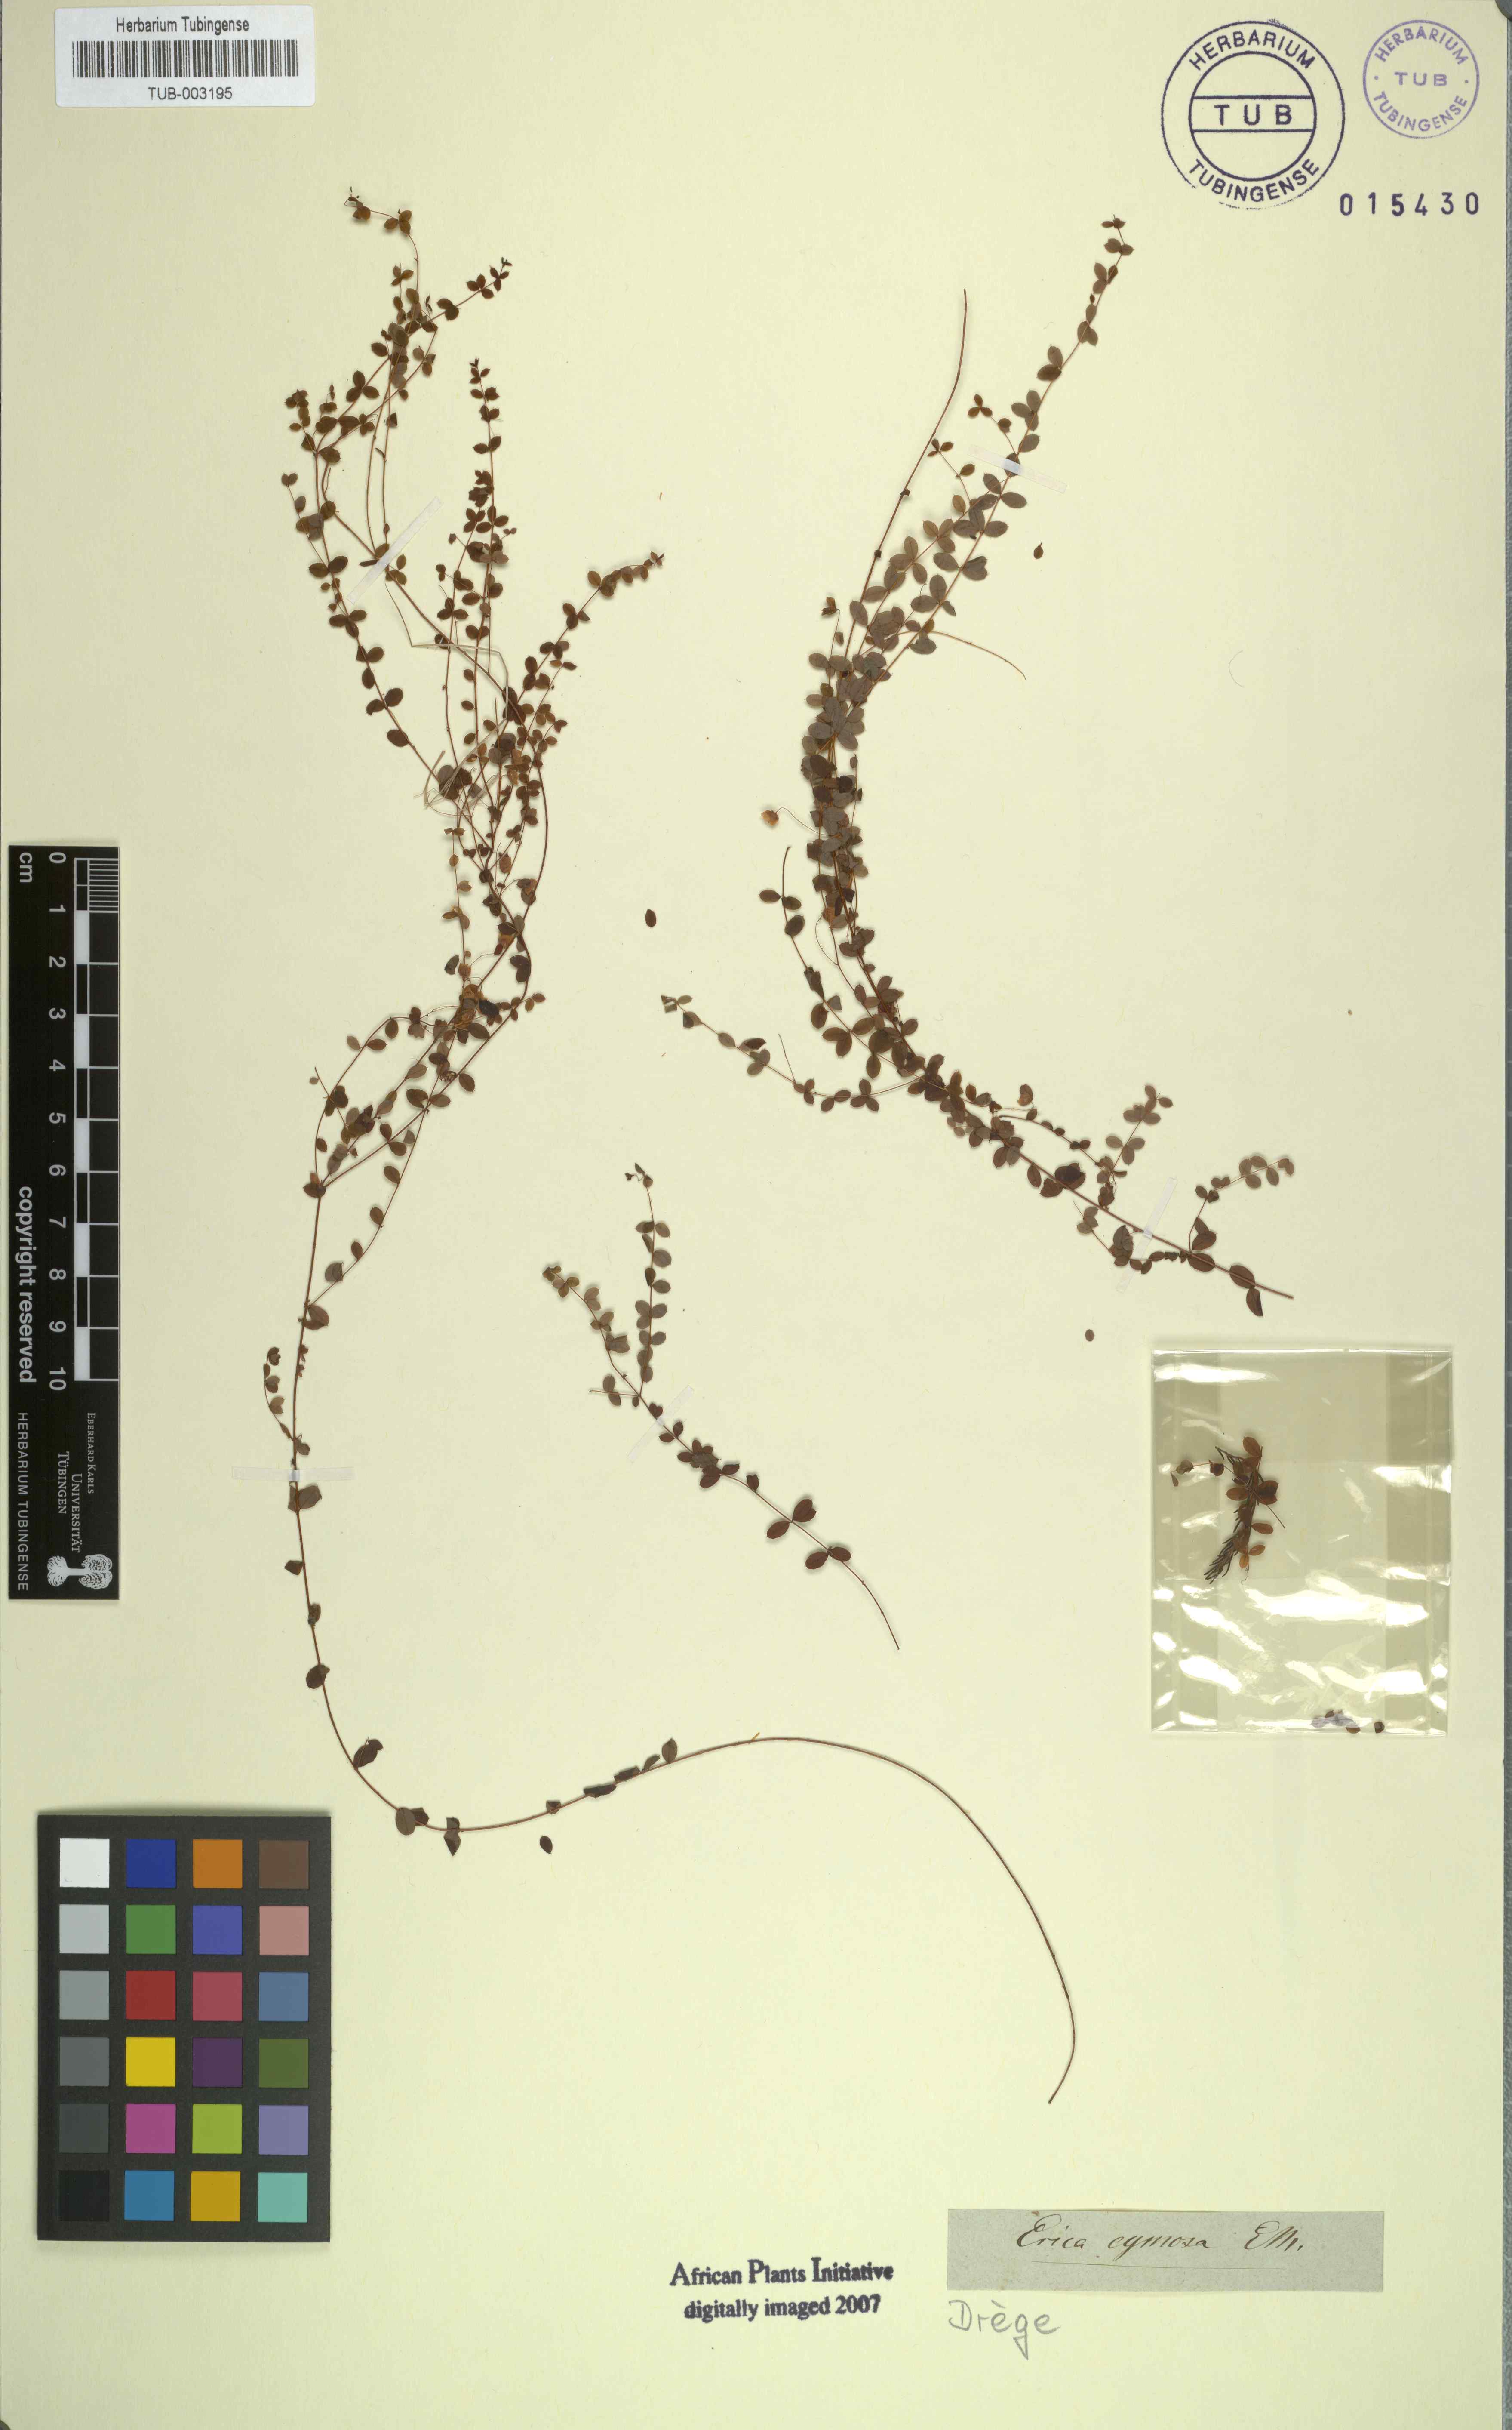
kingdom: Plantae
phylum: Tracheophyta
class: Magnoliopsida
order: Ericales
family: Ericaceae
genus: Erica
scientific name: Erica cymosa
